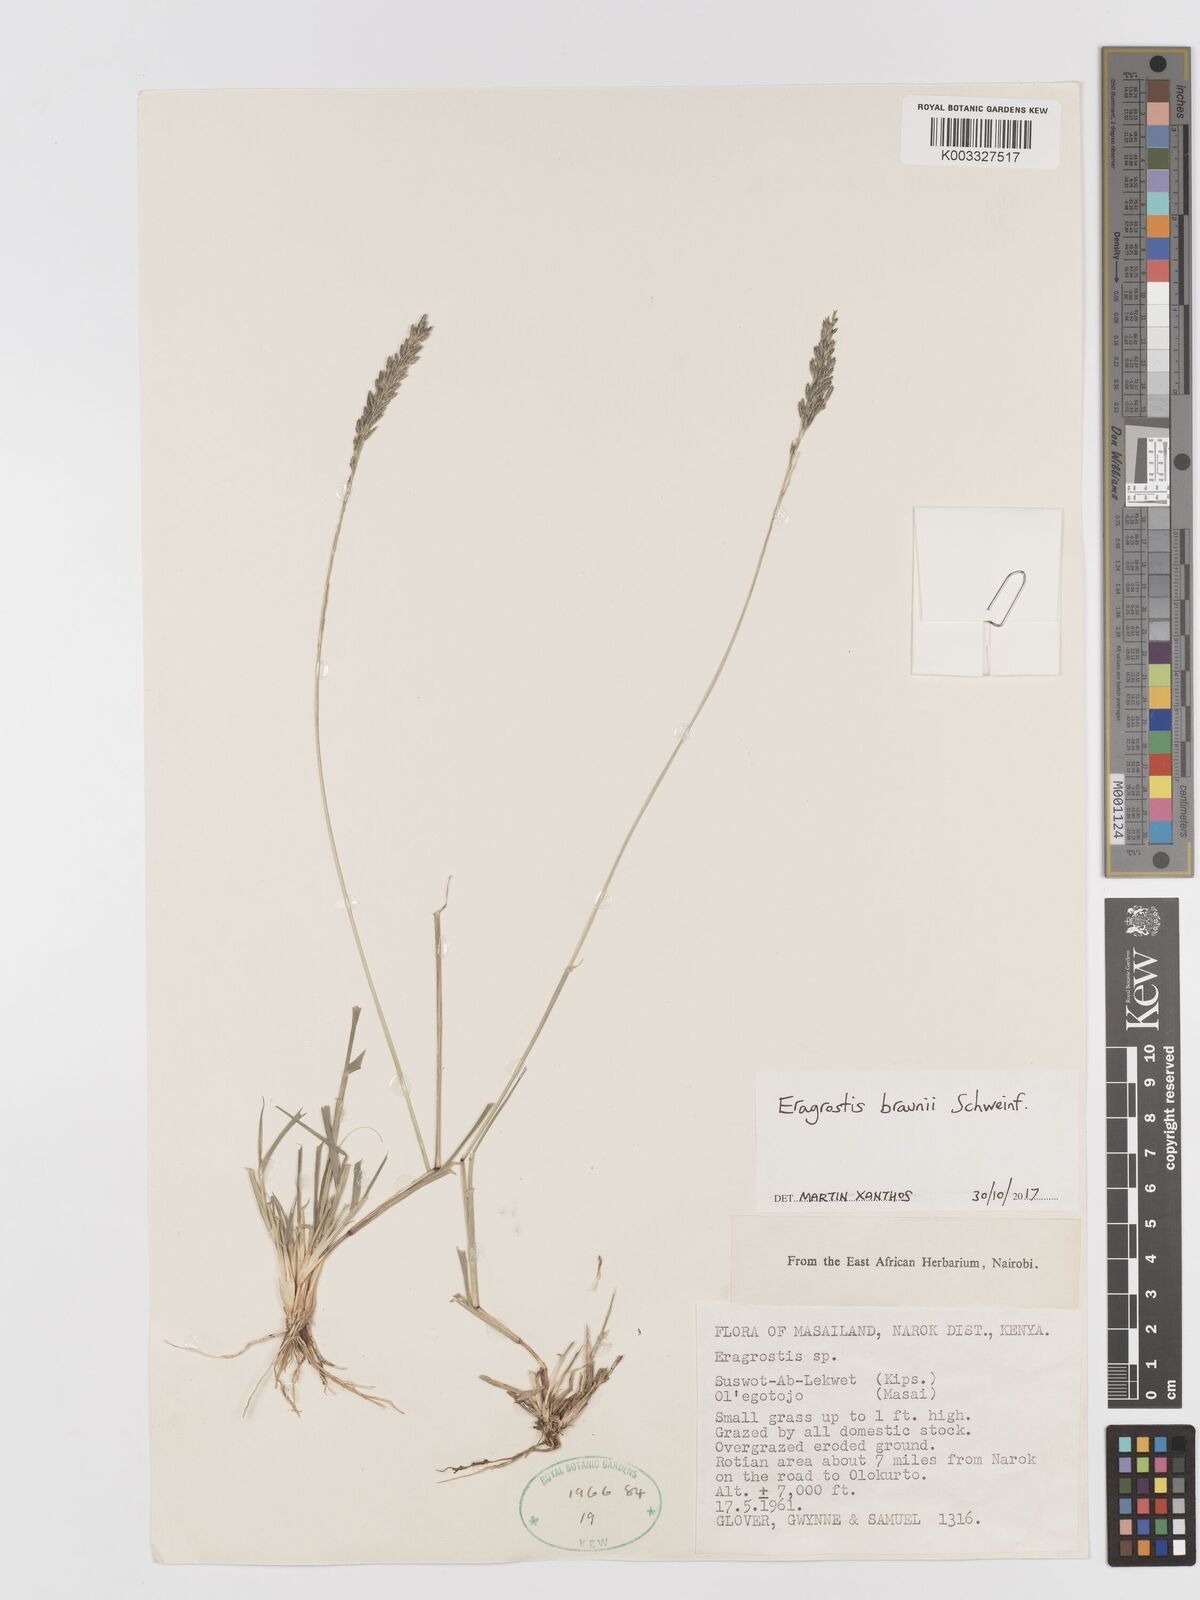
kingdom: Plantae
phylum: Tracheophyta
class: Liliopsida
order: Poales
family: Poaceae
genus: Eragrostis
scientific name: Eragrostis braunii
